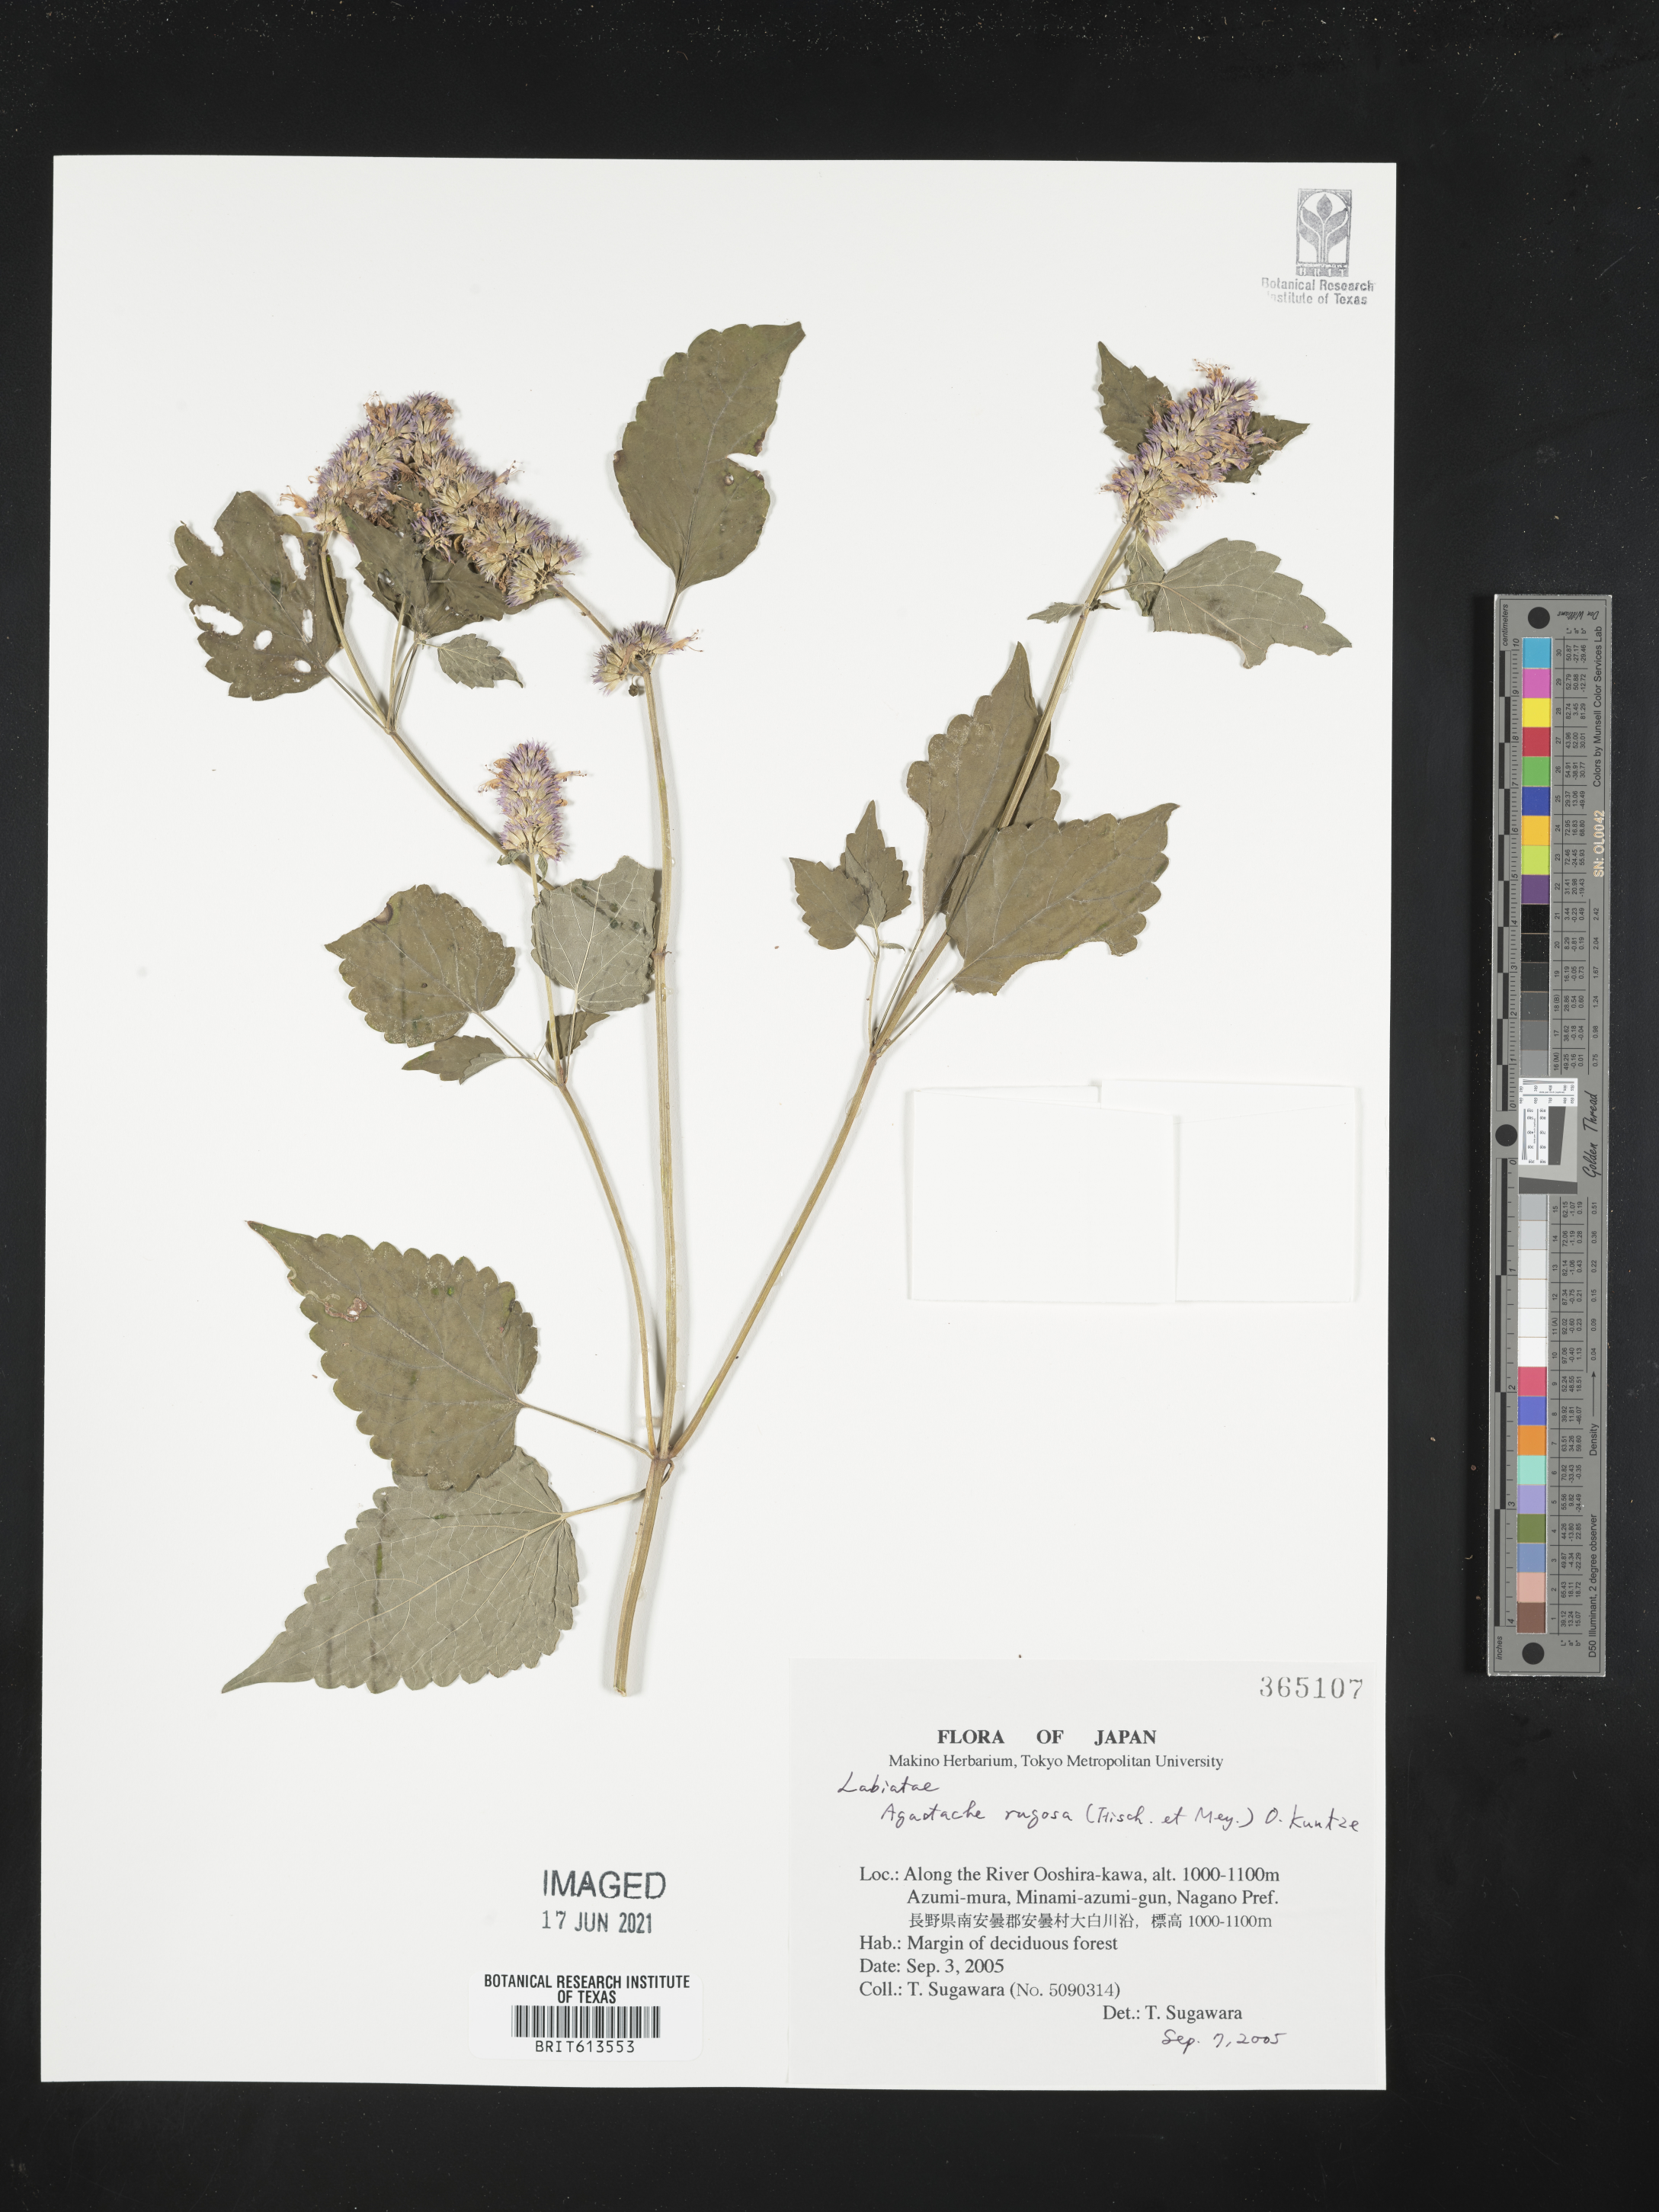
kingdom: Plantae
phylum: Tracheophyta
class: Magnoliopsida
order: Lamiales
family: Lamiaceae
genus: Agastache
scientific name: Agastache rugosa
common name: Mint
